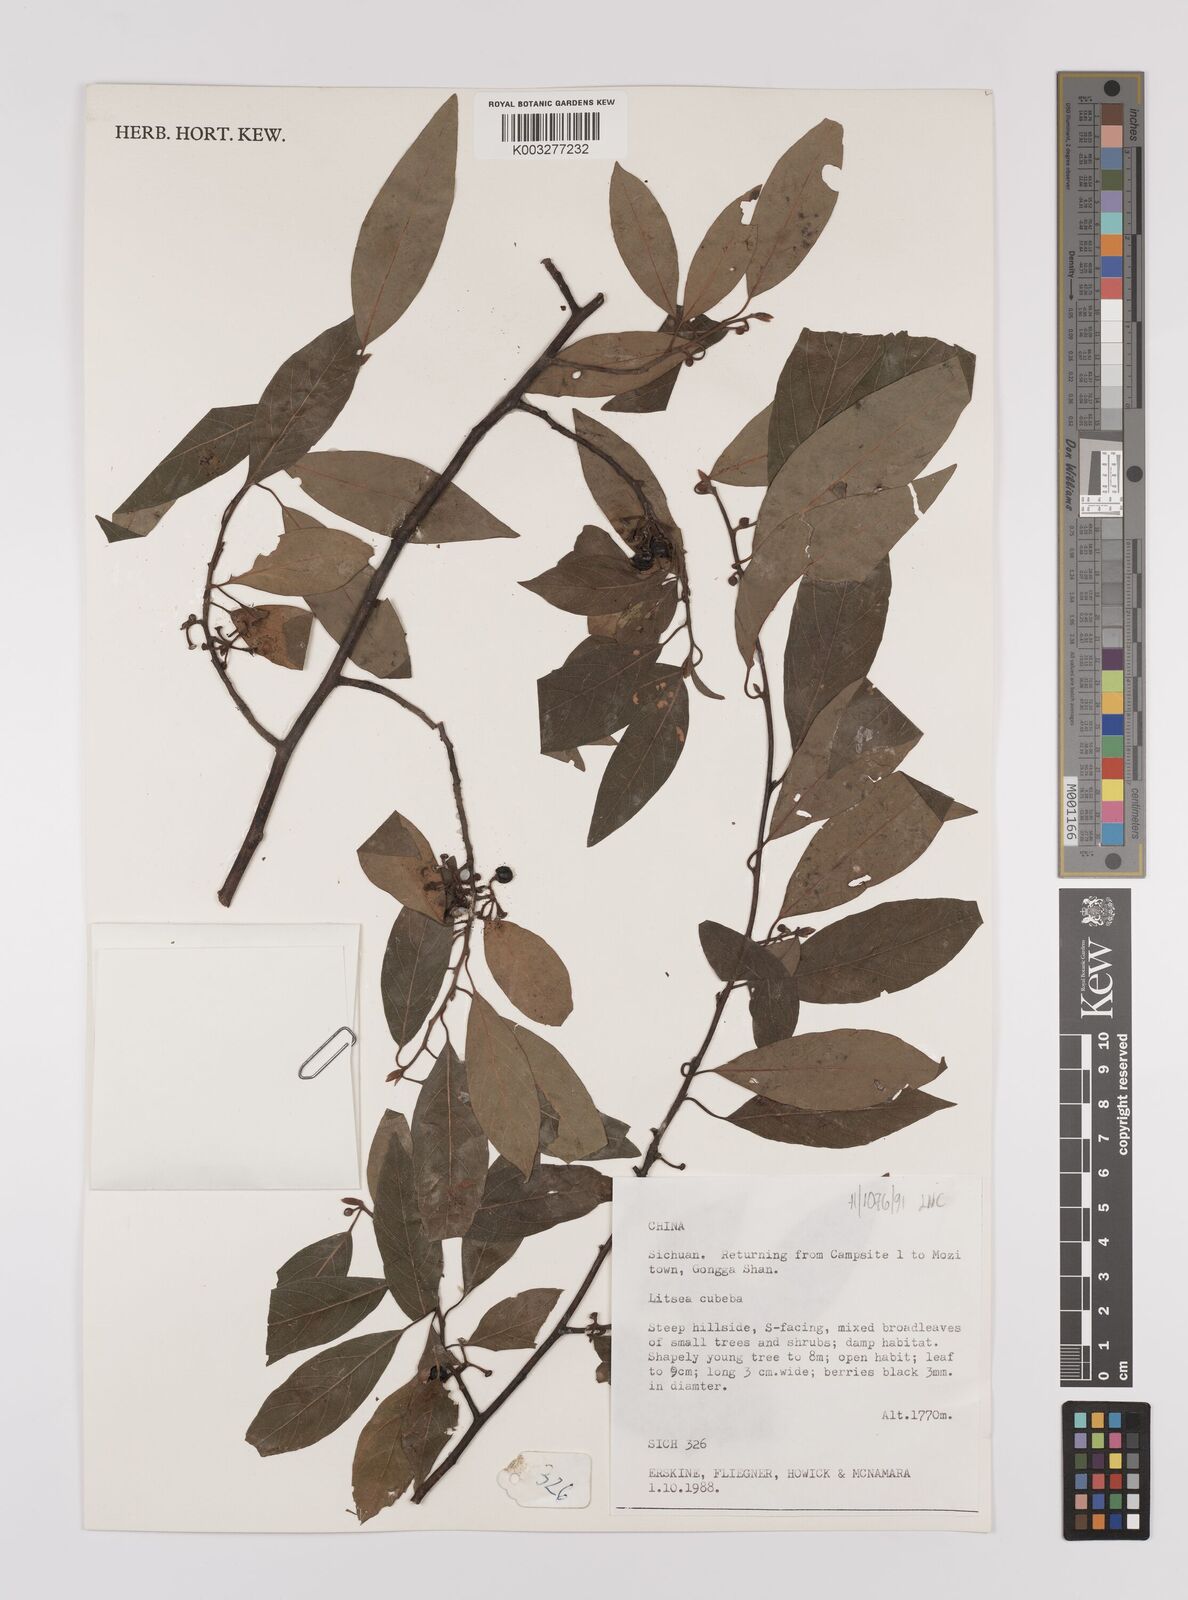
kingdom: Plantae
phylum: Tracheophyta
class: Magnoliopsida
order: Laurales
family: Lauraceae
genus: Litsea
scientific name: Litsea cubeba
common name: Mountain-pepper
